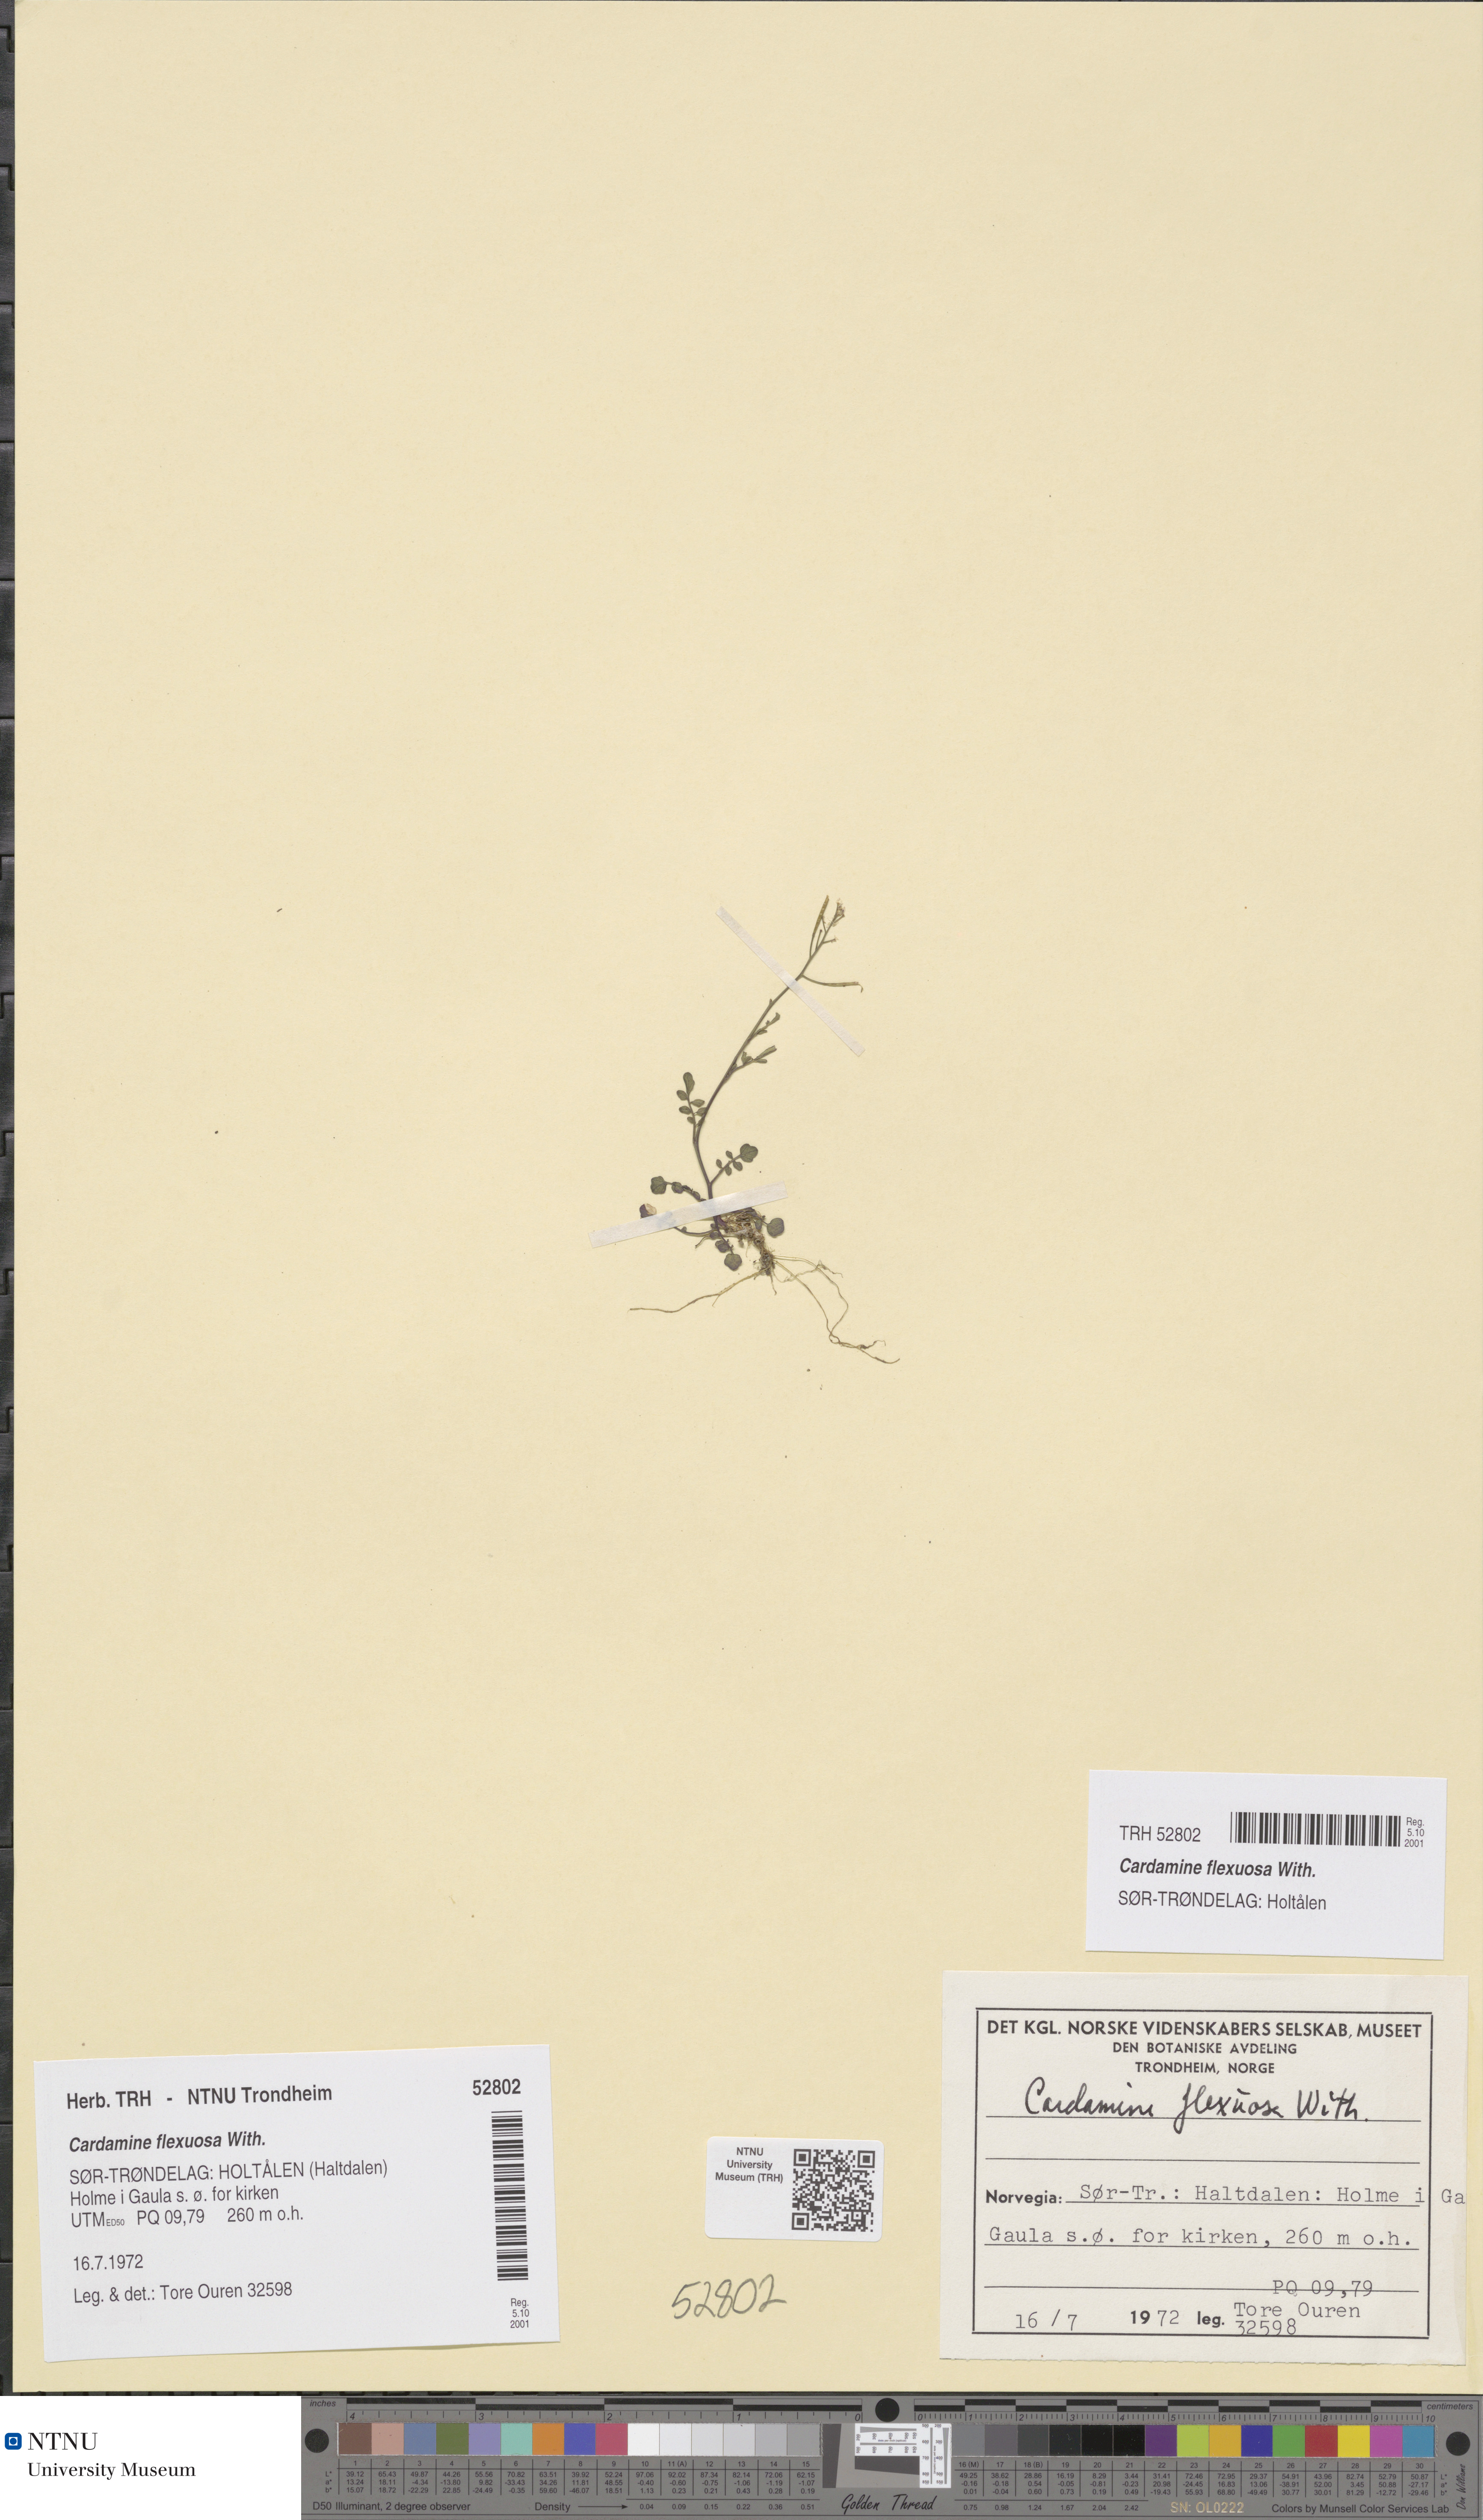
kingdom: Plantae
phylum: Tracheophyta
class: Magnoliopsida
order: Brassicales
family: Brassicaceae
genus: Cardamine
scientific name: Cardamine flexuosa
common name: Woodland bittercress
